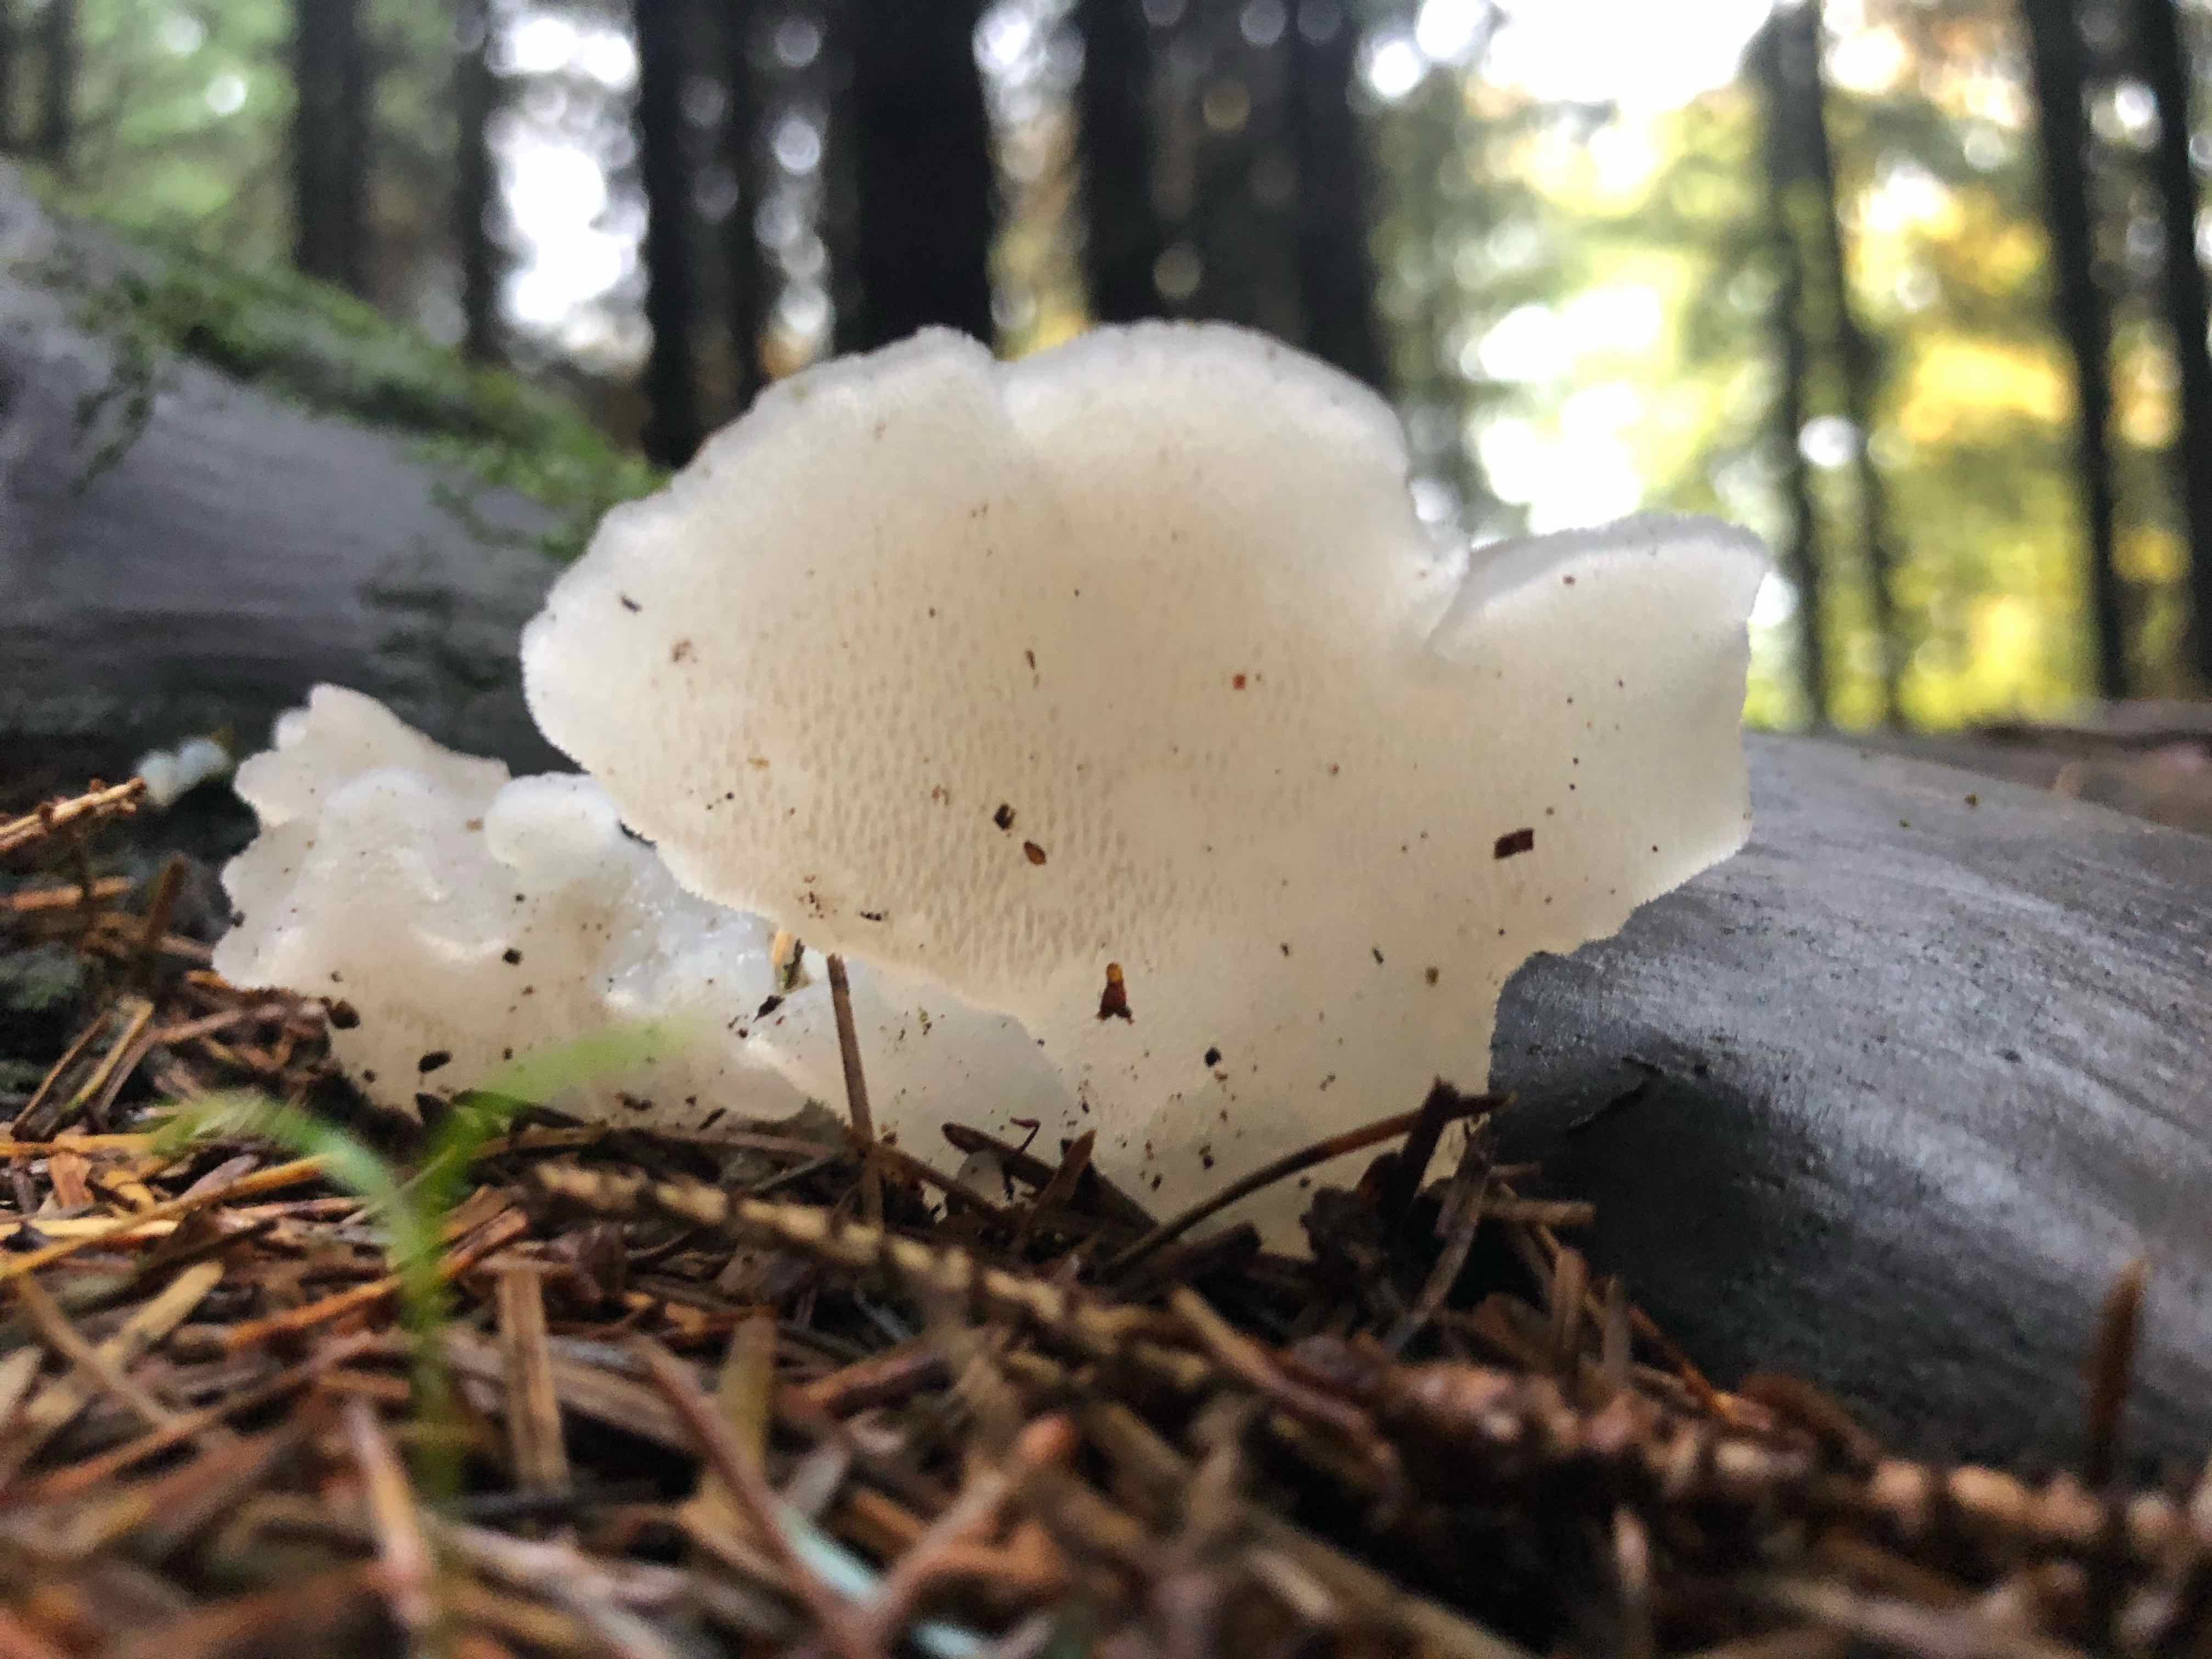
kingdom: Fungi
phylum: Basidiomycota
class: Agaricomycetes
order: Auriculariales
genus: Pseudohydnum
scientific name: Pseudohydnum gelatinosum
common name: bævretand
